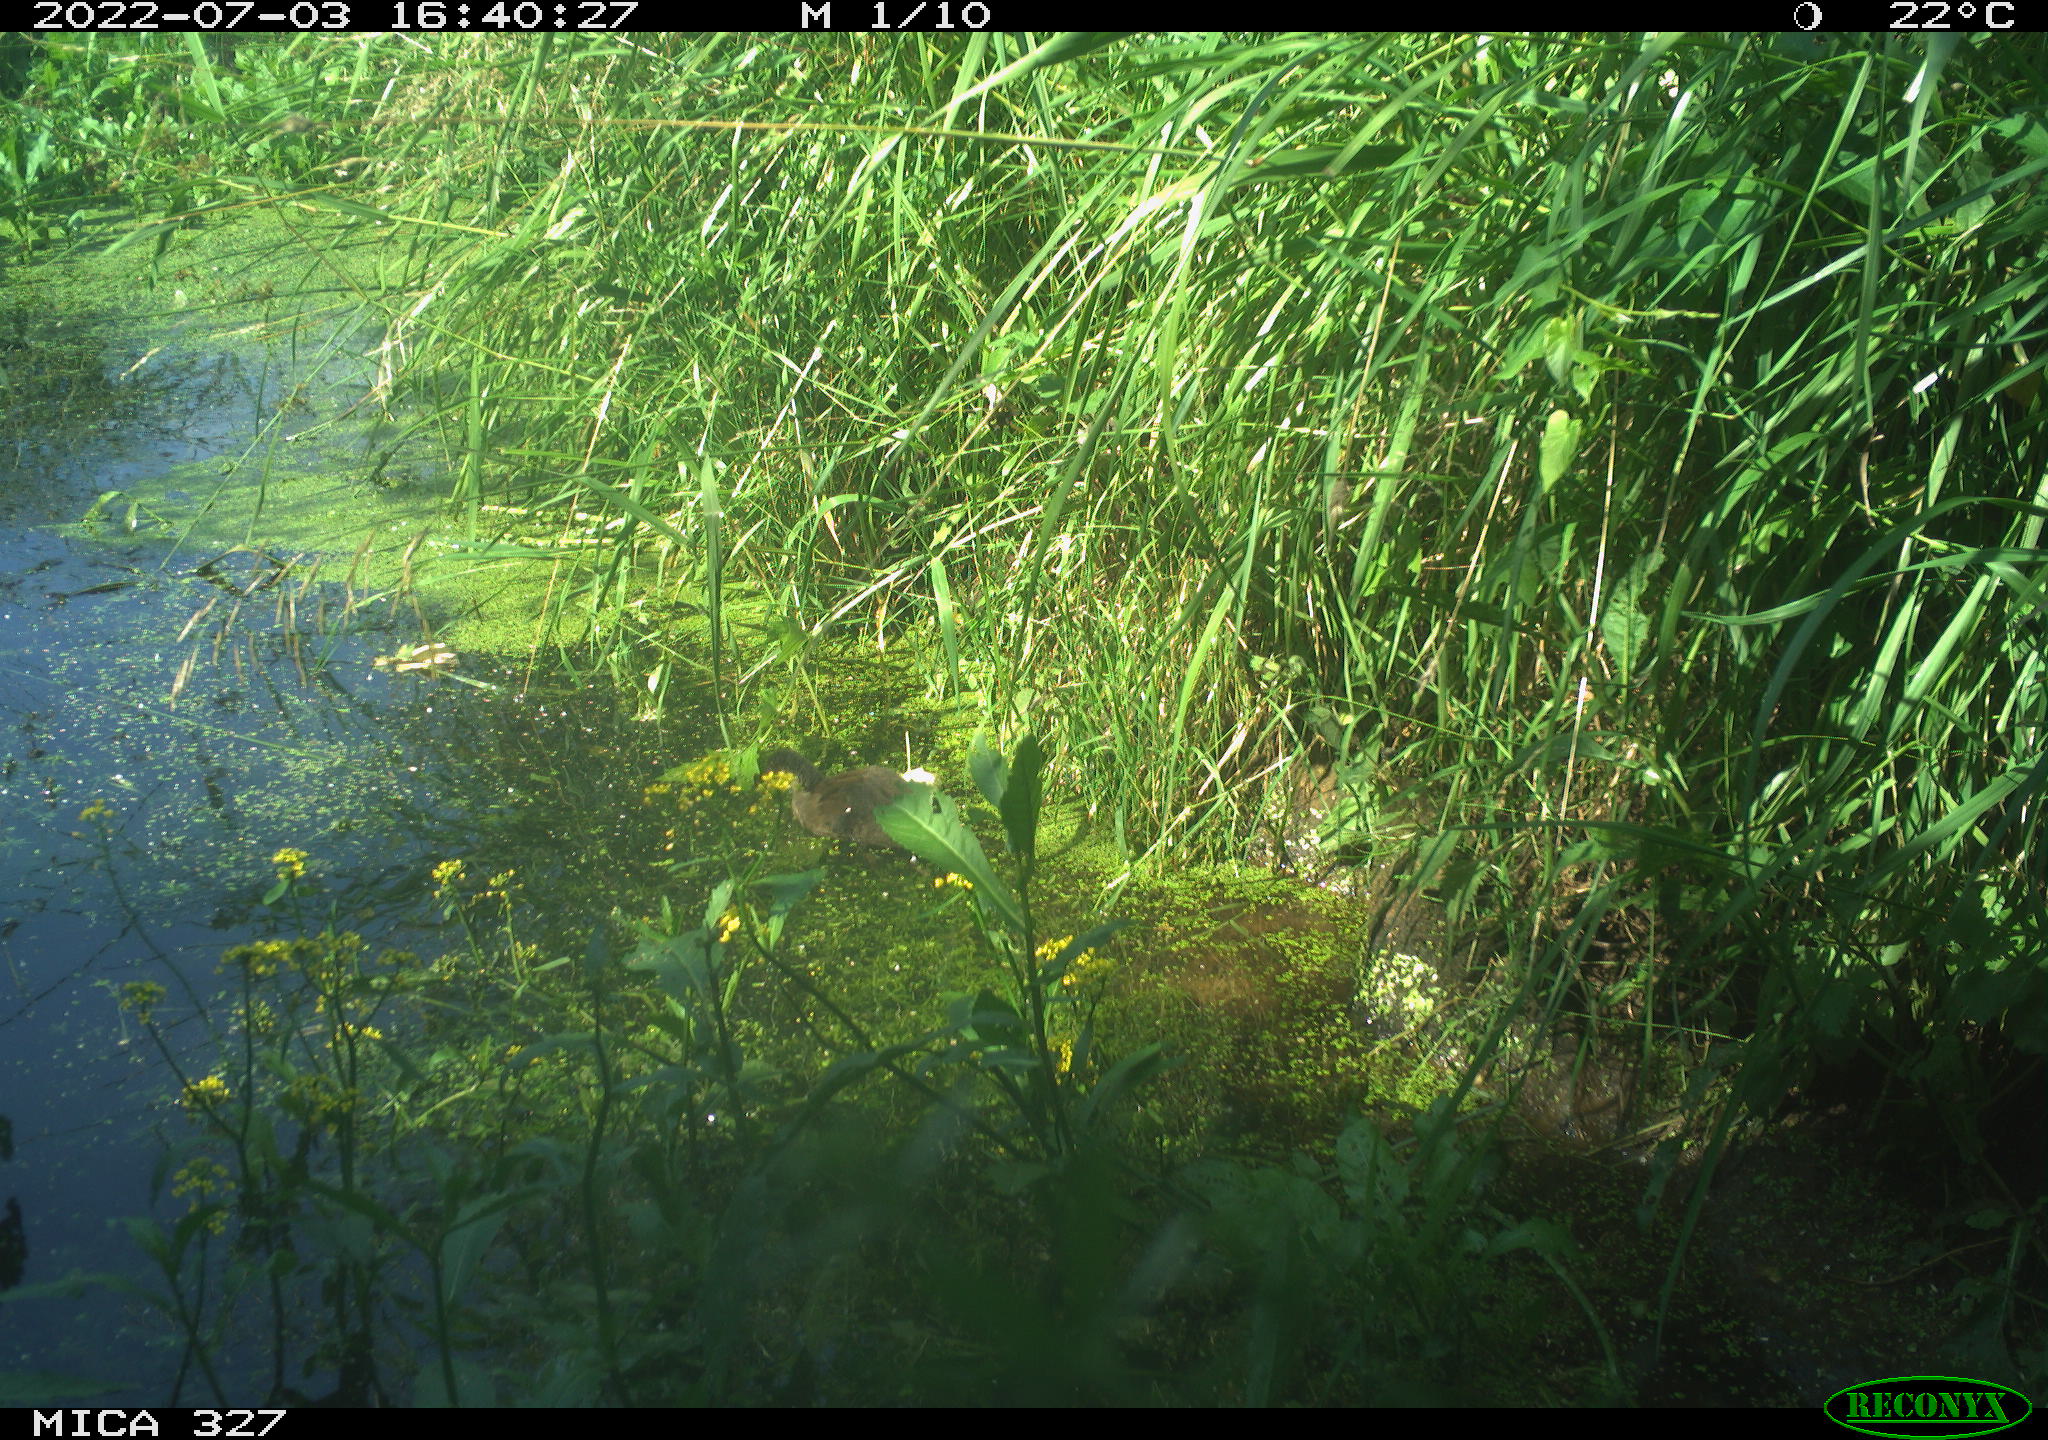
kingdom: Animalia
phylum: Chordata
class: Aves
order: Gruiformes
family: Rallidae
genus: Gallinula
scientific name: Gallinula chloropus
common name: Common moorhen
